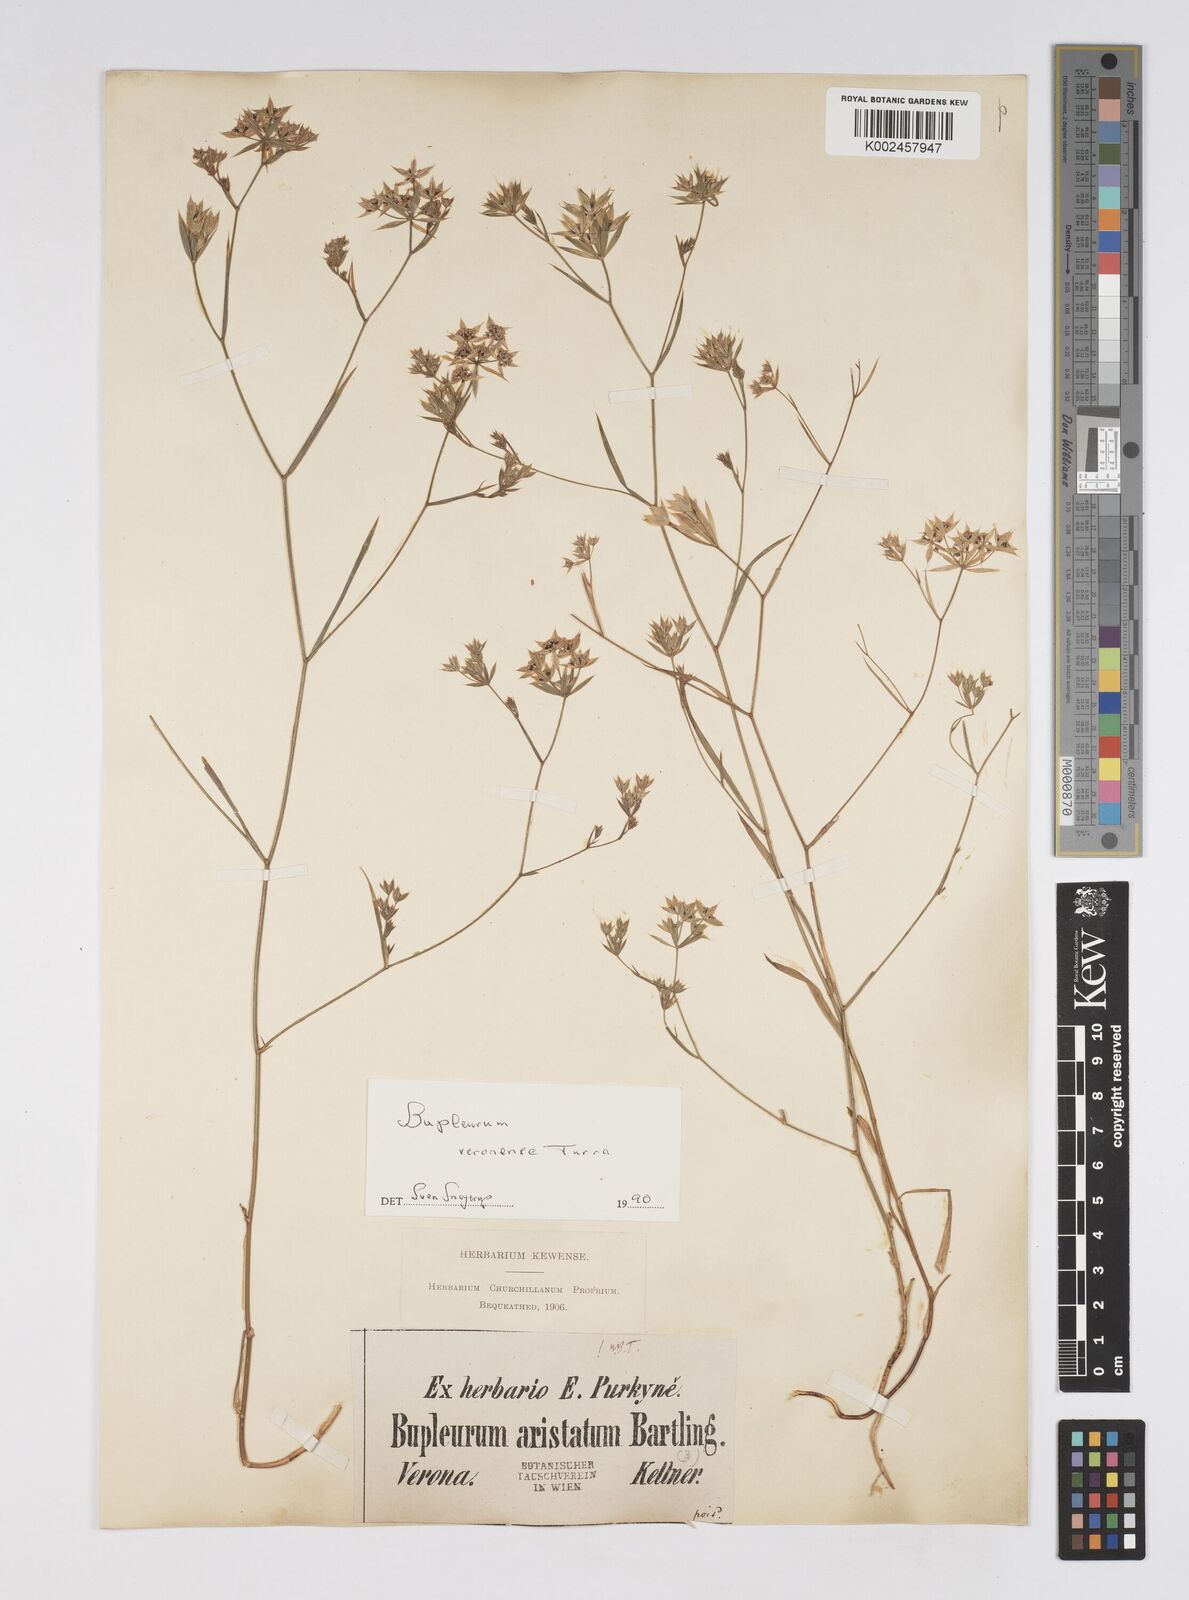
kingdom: Plantae
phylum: Tracheophyta
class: Magnoliopsida
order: Apiales
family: Apiaceae
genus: Bupleurum
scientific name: Bupleurum glumaceum
